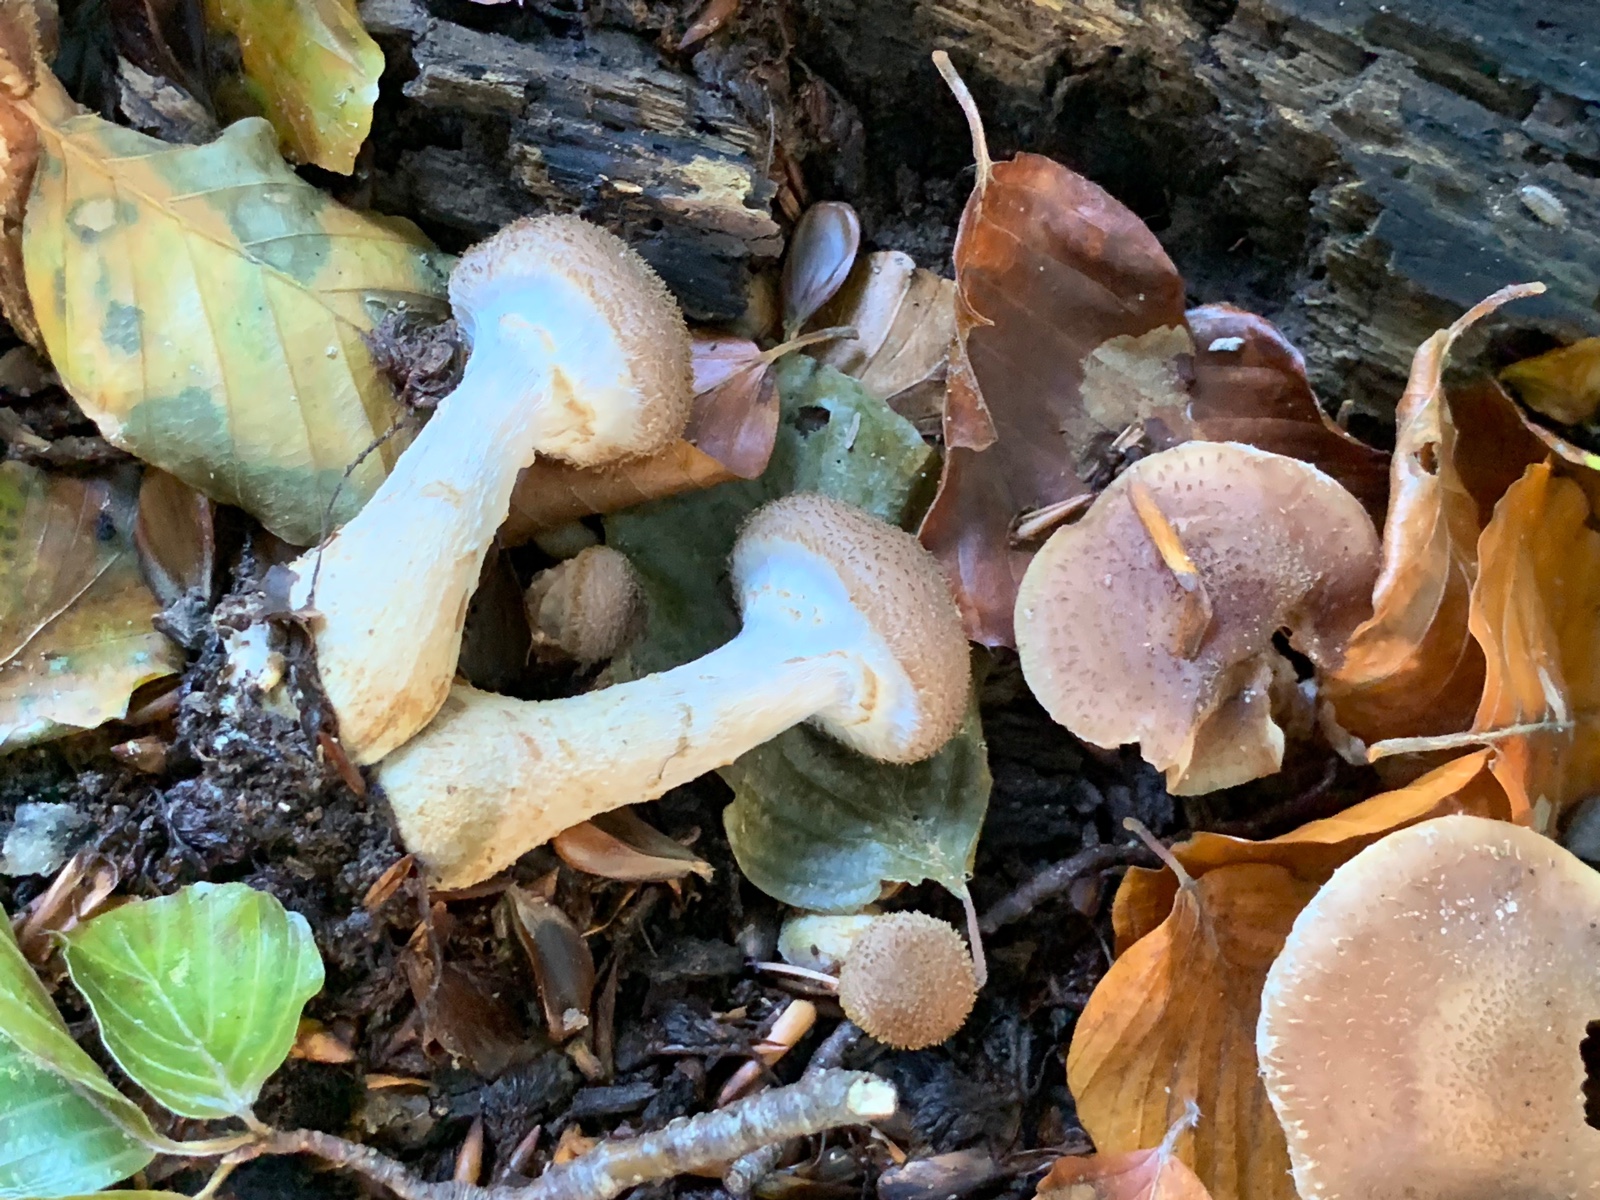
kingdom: Fungi
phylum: Basidiomycota
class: Agaricomycetes
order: Agaricales
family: Physalacriaceae
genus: Armillaria
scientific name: Armillaria lutea
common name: køllestokket honningsvamp
